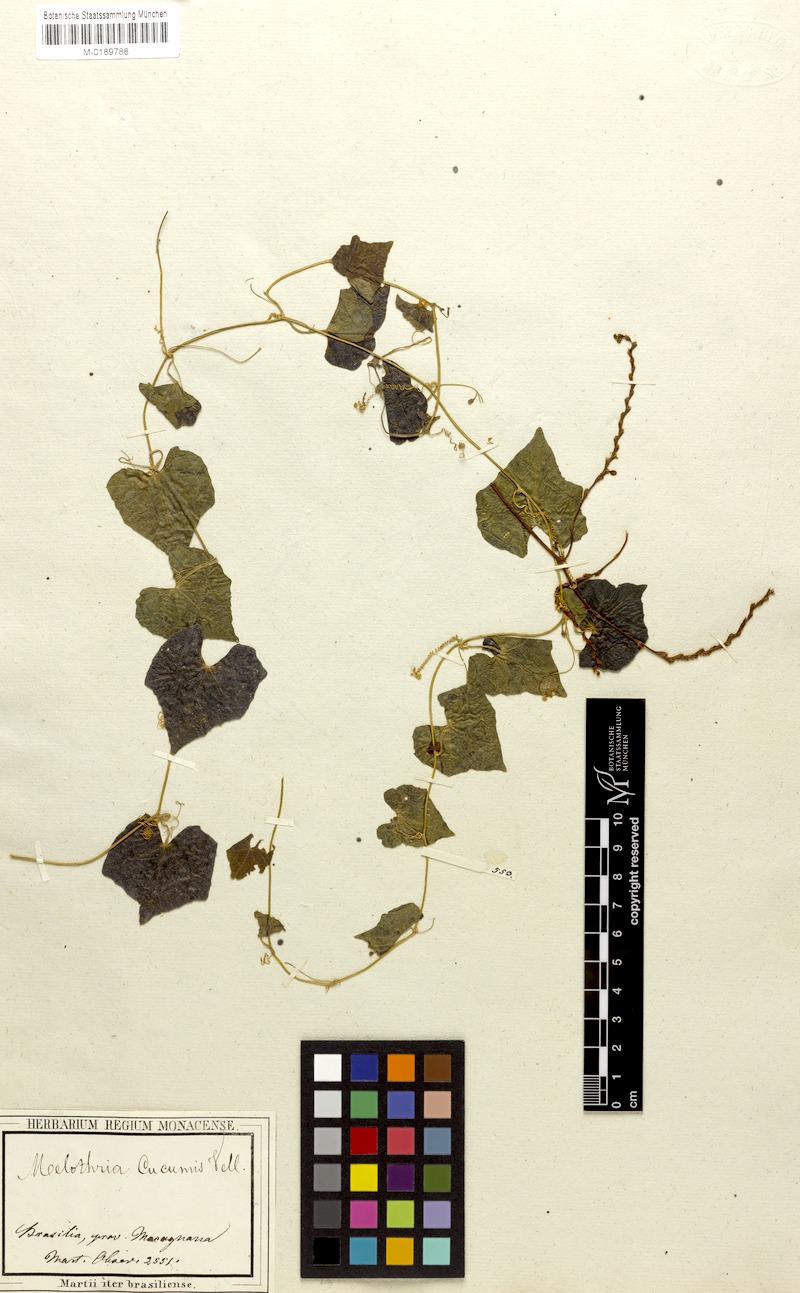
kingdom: Plantae
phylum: Tracheophyta
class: Magnoliopsida
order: Cucurbitales
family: Cucurbitaceae
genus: Melothria
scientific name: Melothria cucumis
